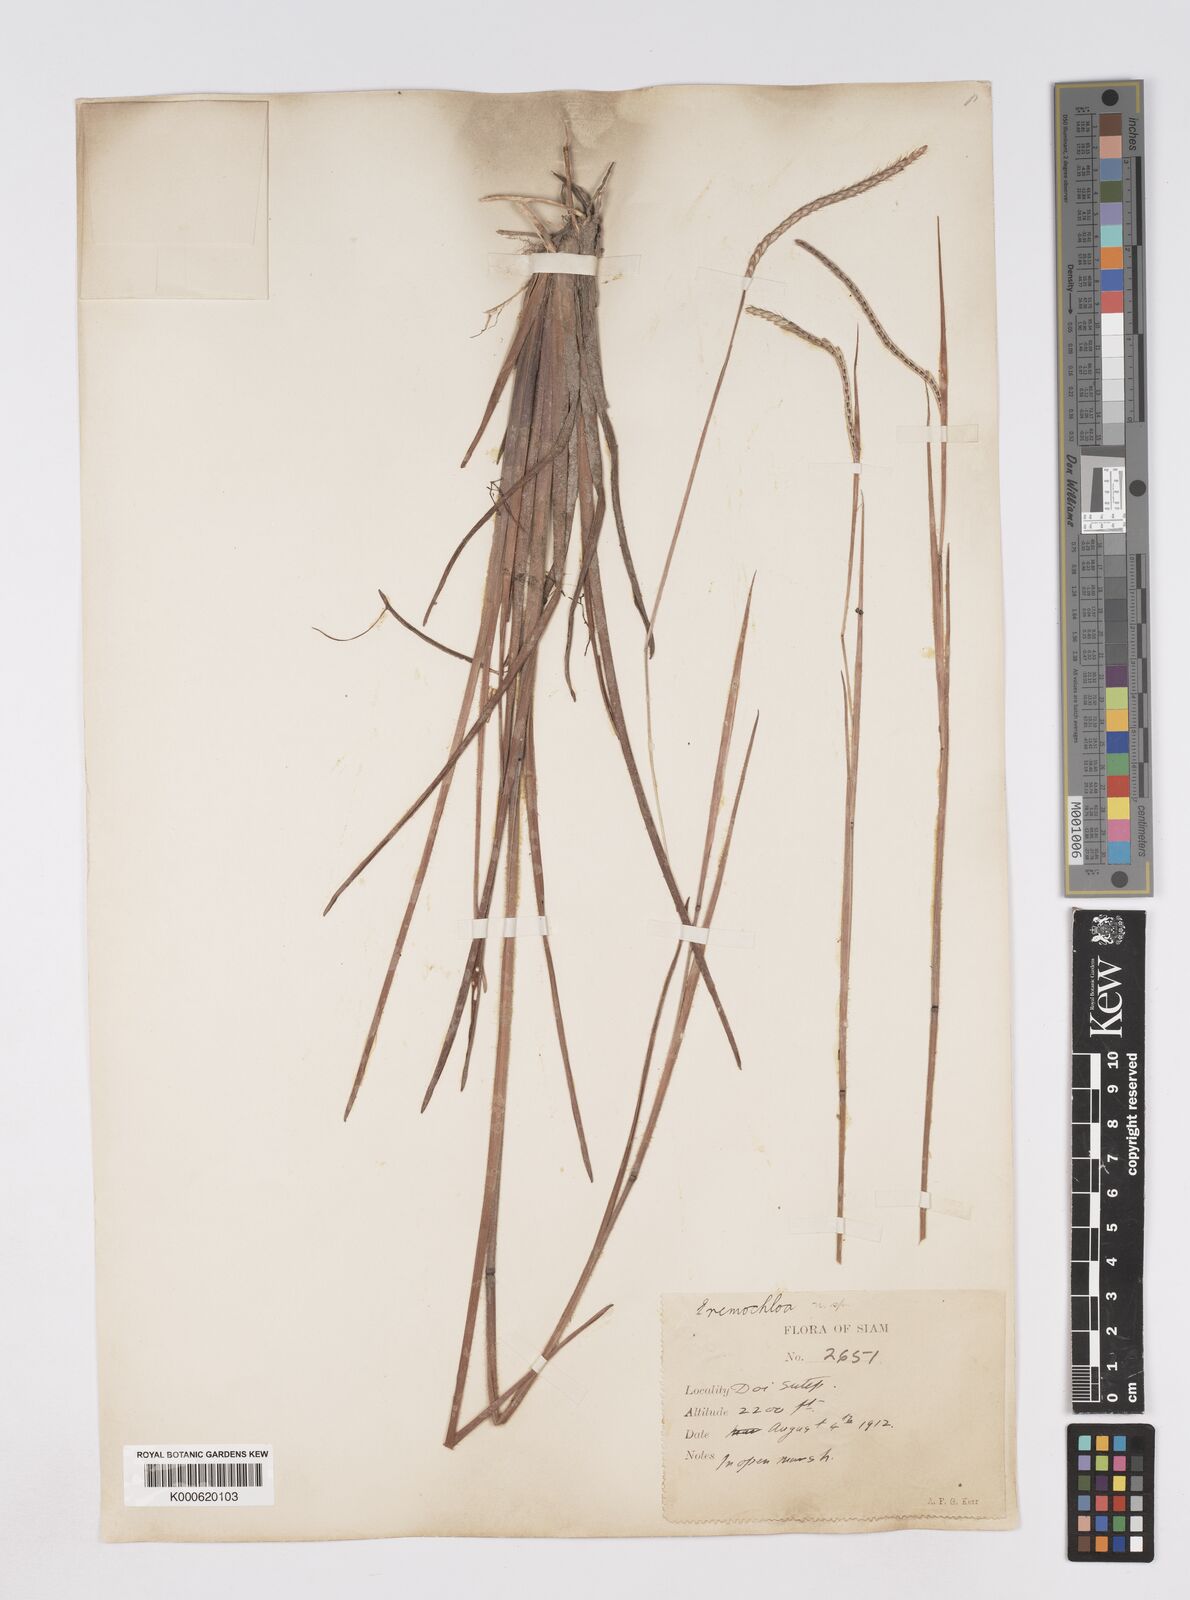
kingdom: Plantae
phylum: Tracheophyta
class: Liliopsida
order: Poales
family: Poaceae
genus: Eremochloa
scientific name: Eremochloa ciliaris
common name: Fringed centipede grass
